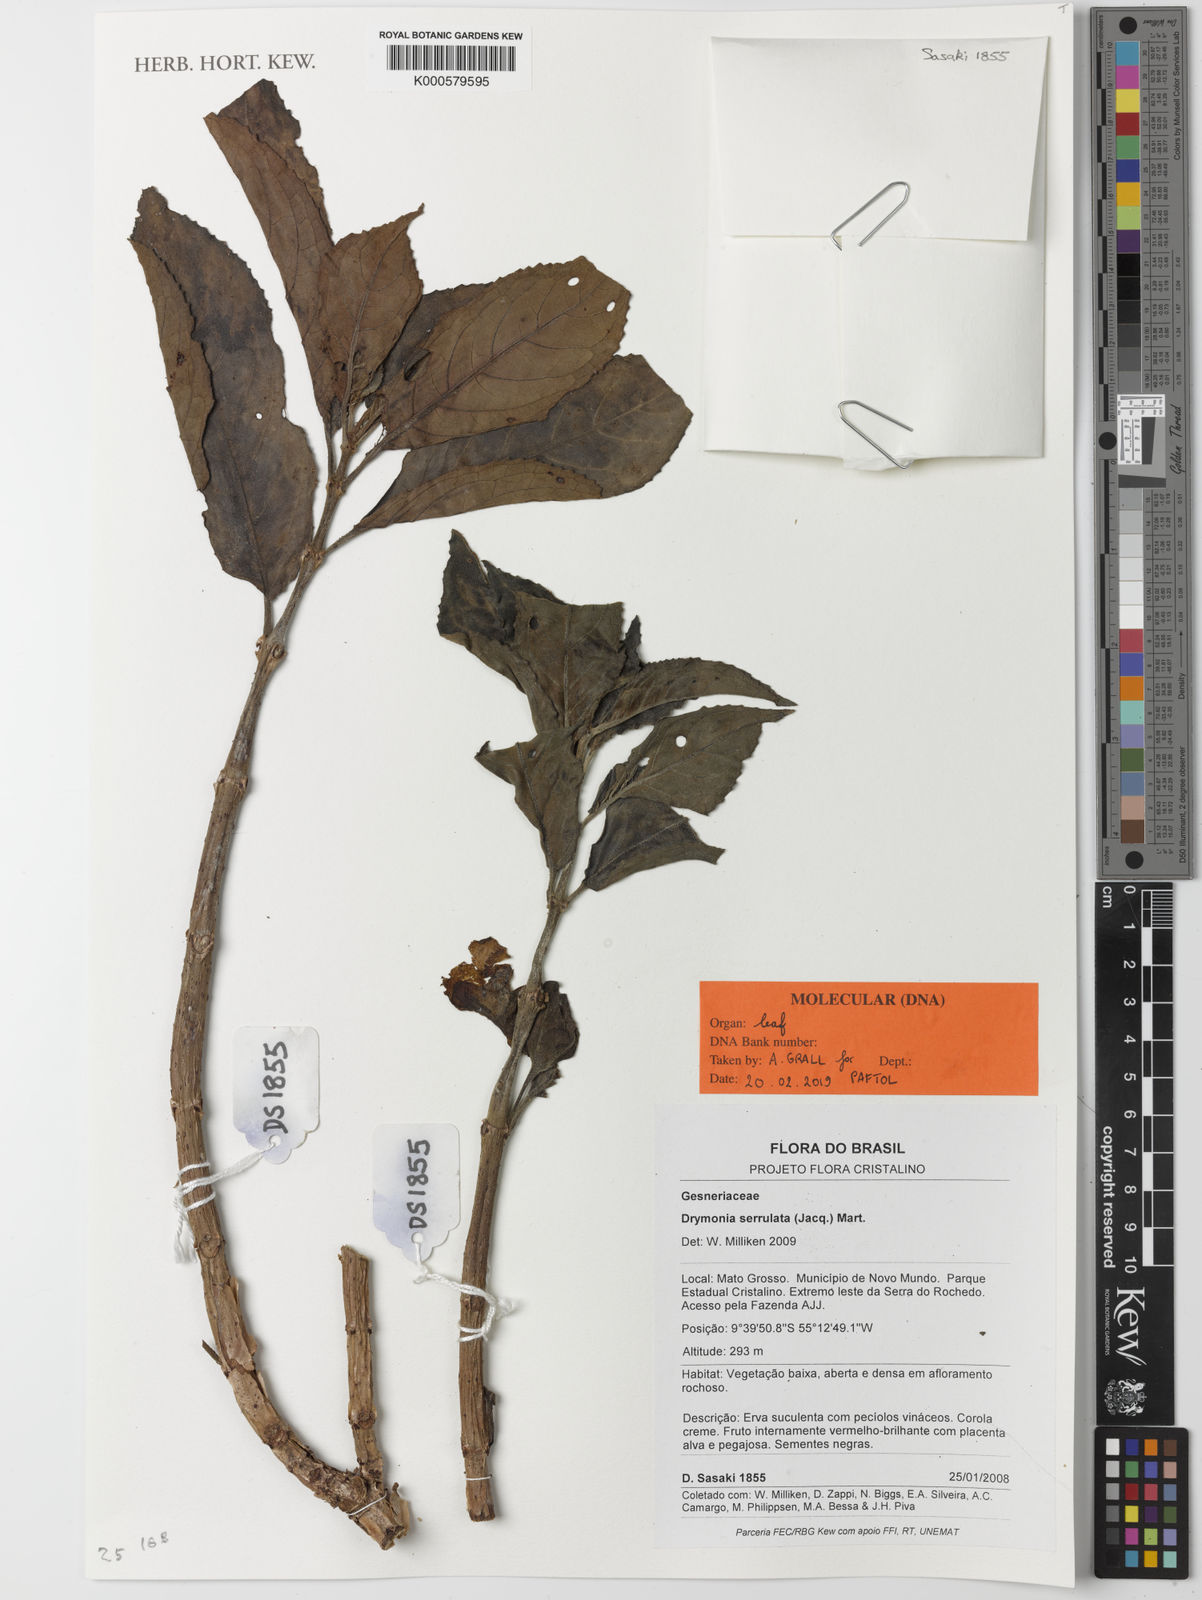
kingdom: Plantae
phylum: Tracheophyta
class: Magnoliopsida
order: Lamiales
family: Gesneriaceae
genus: Drymonia
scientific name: Drymonia serrulata
